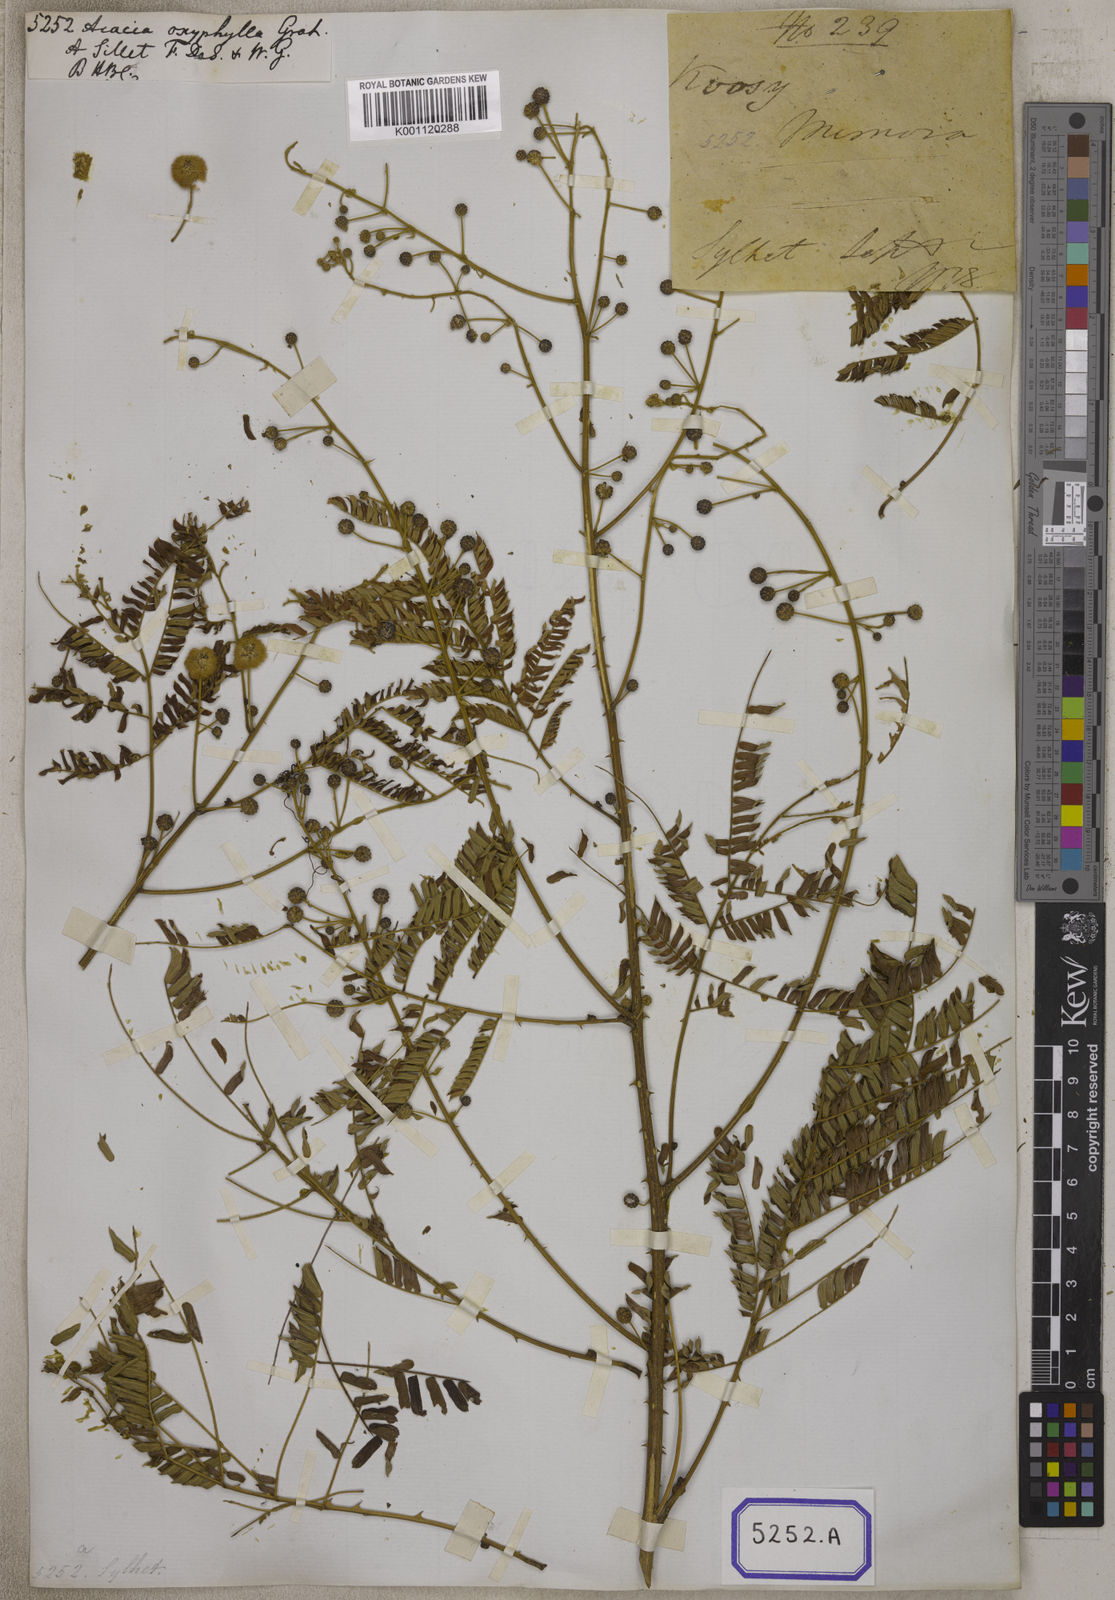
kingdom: Plantae
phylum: Tracheophyta
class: Magnoliopsida
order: Fabales
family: Fabaceae
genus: Acacia
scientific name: Acacia
